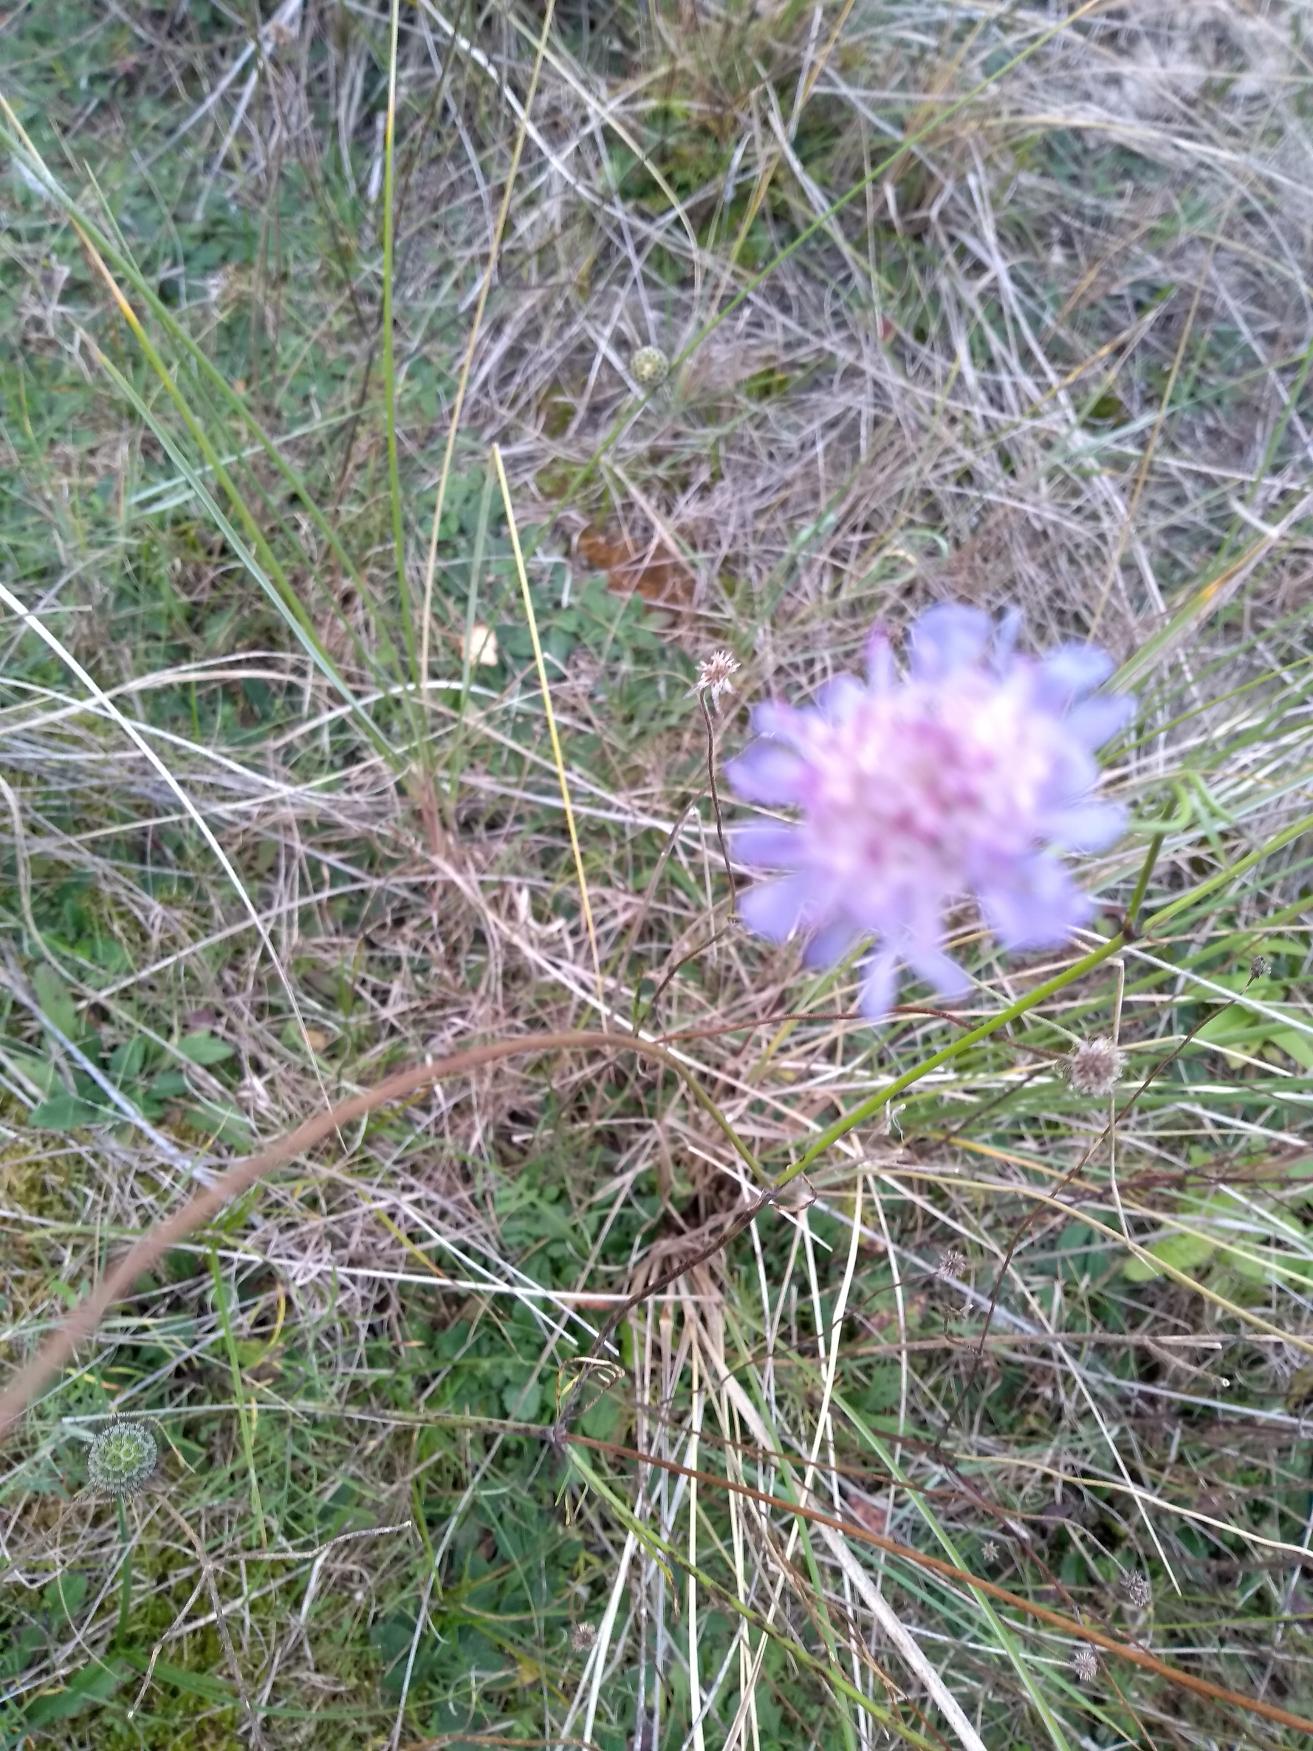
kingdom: Plantae
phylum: Tracheophyta
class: Magnoliopsida
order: Dipsacales
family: Caprifoliaceae
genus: Scabiosa
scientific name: Scabiosa columbaria
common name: Due-skabiose
